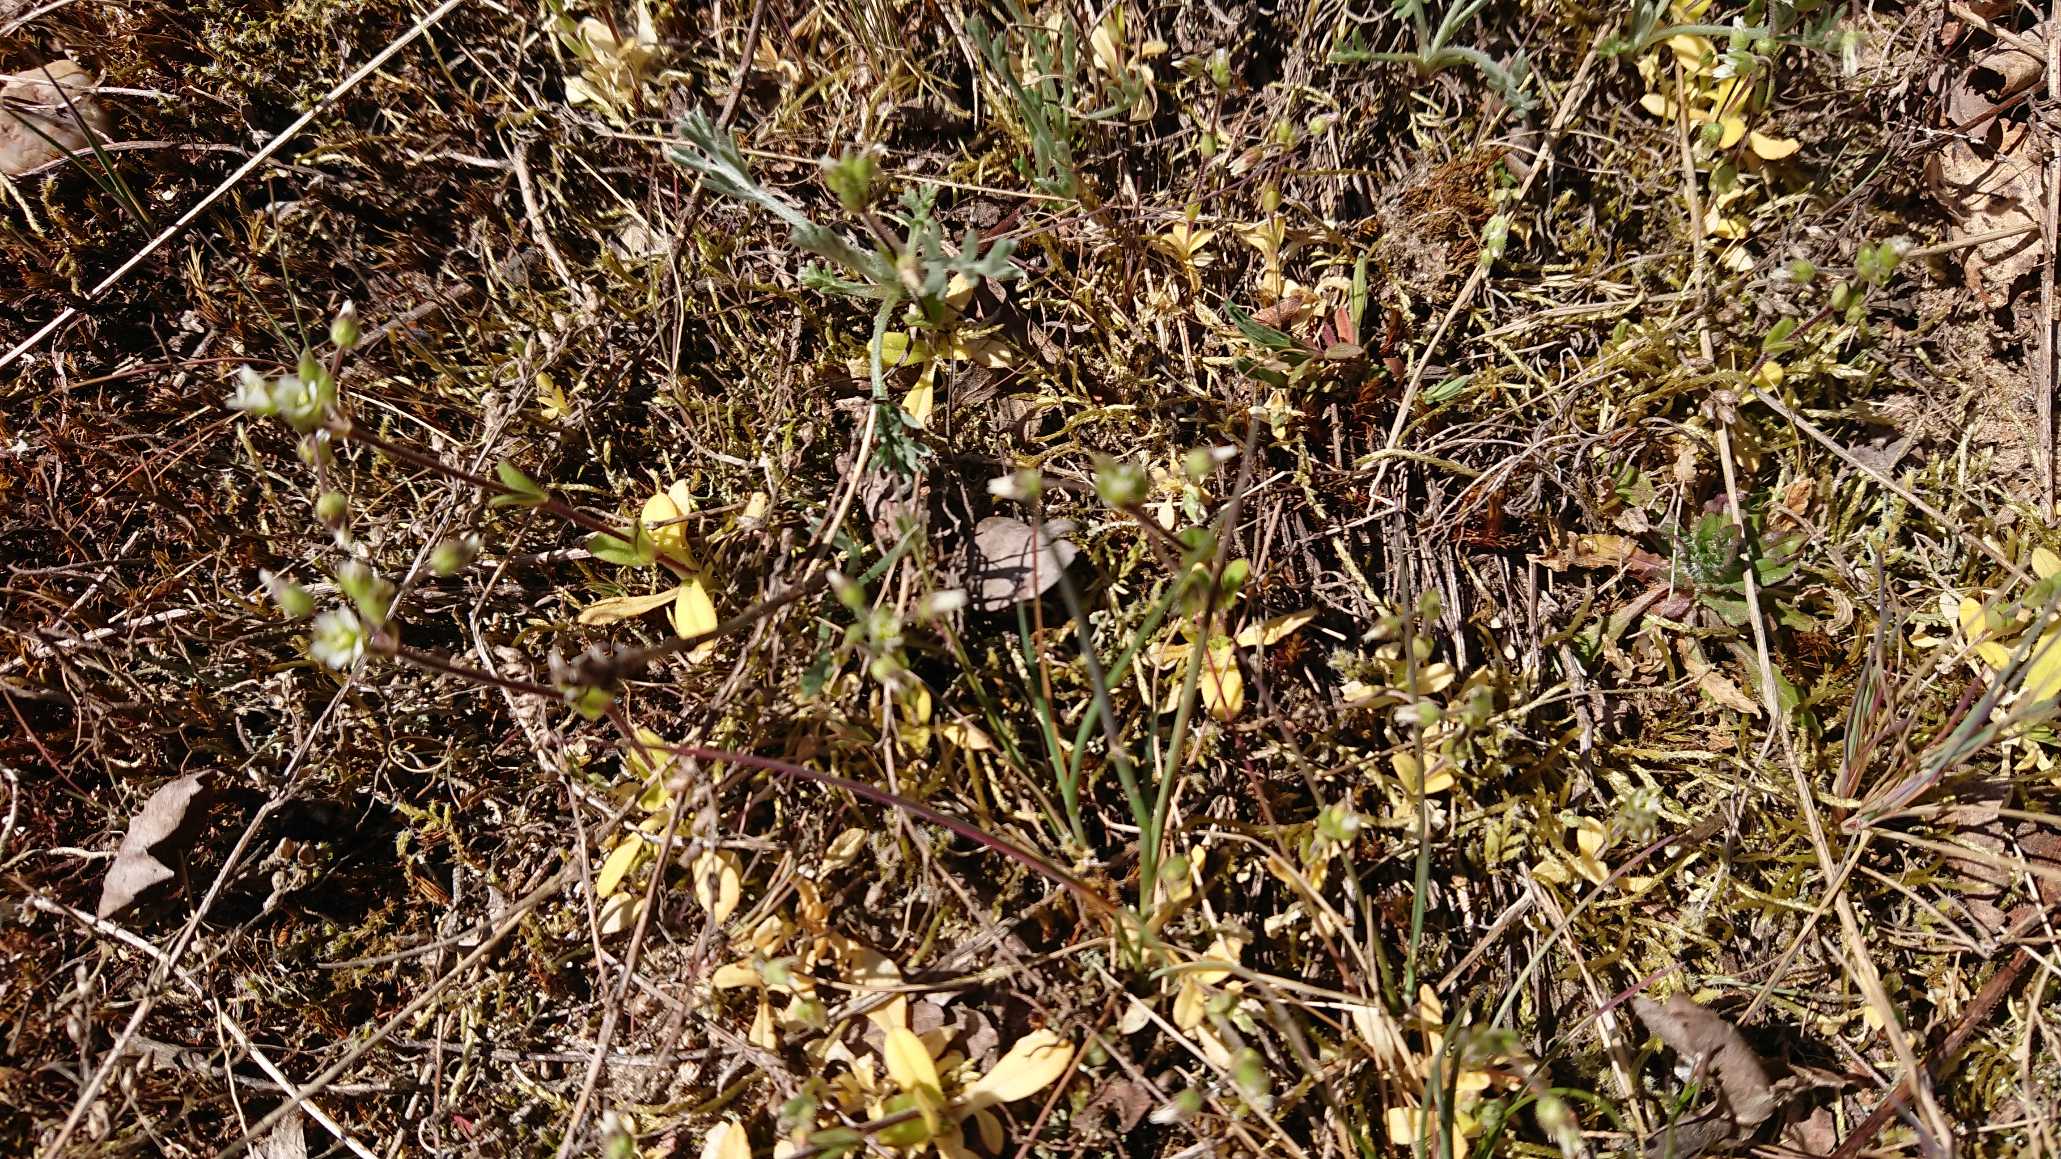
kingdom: Plantae
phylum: Tracheophyta
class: Magnoliopsida
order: Caryophyllales
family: Caryophyllaceae
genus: Cerastium
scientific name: Cerastium semidecandrum
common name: Femhannet hønsetarm
